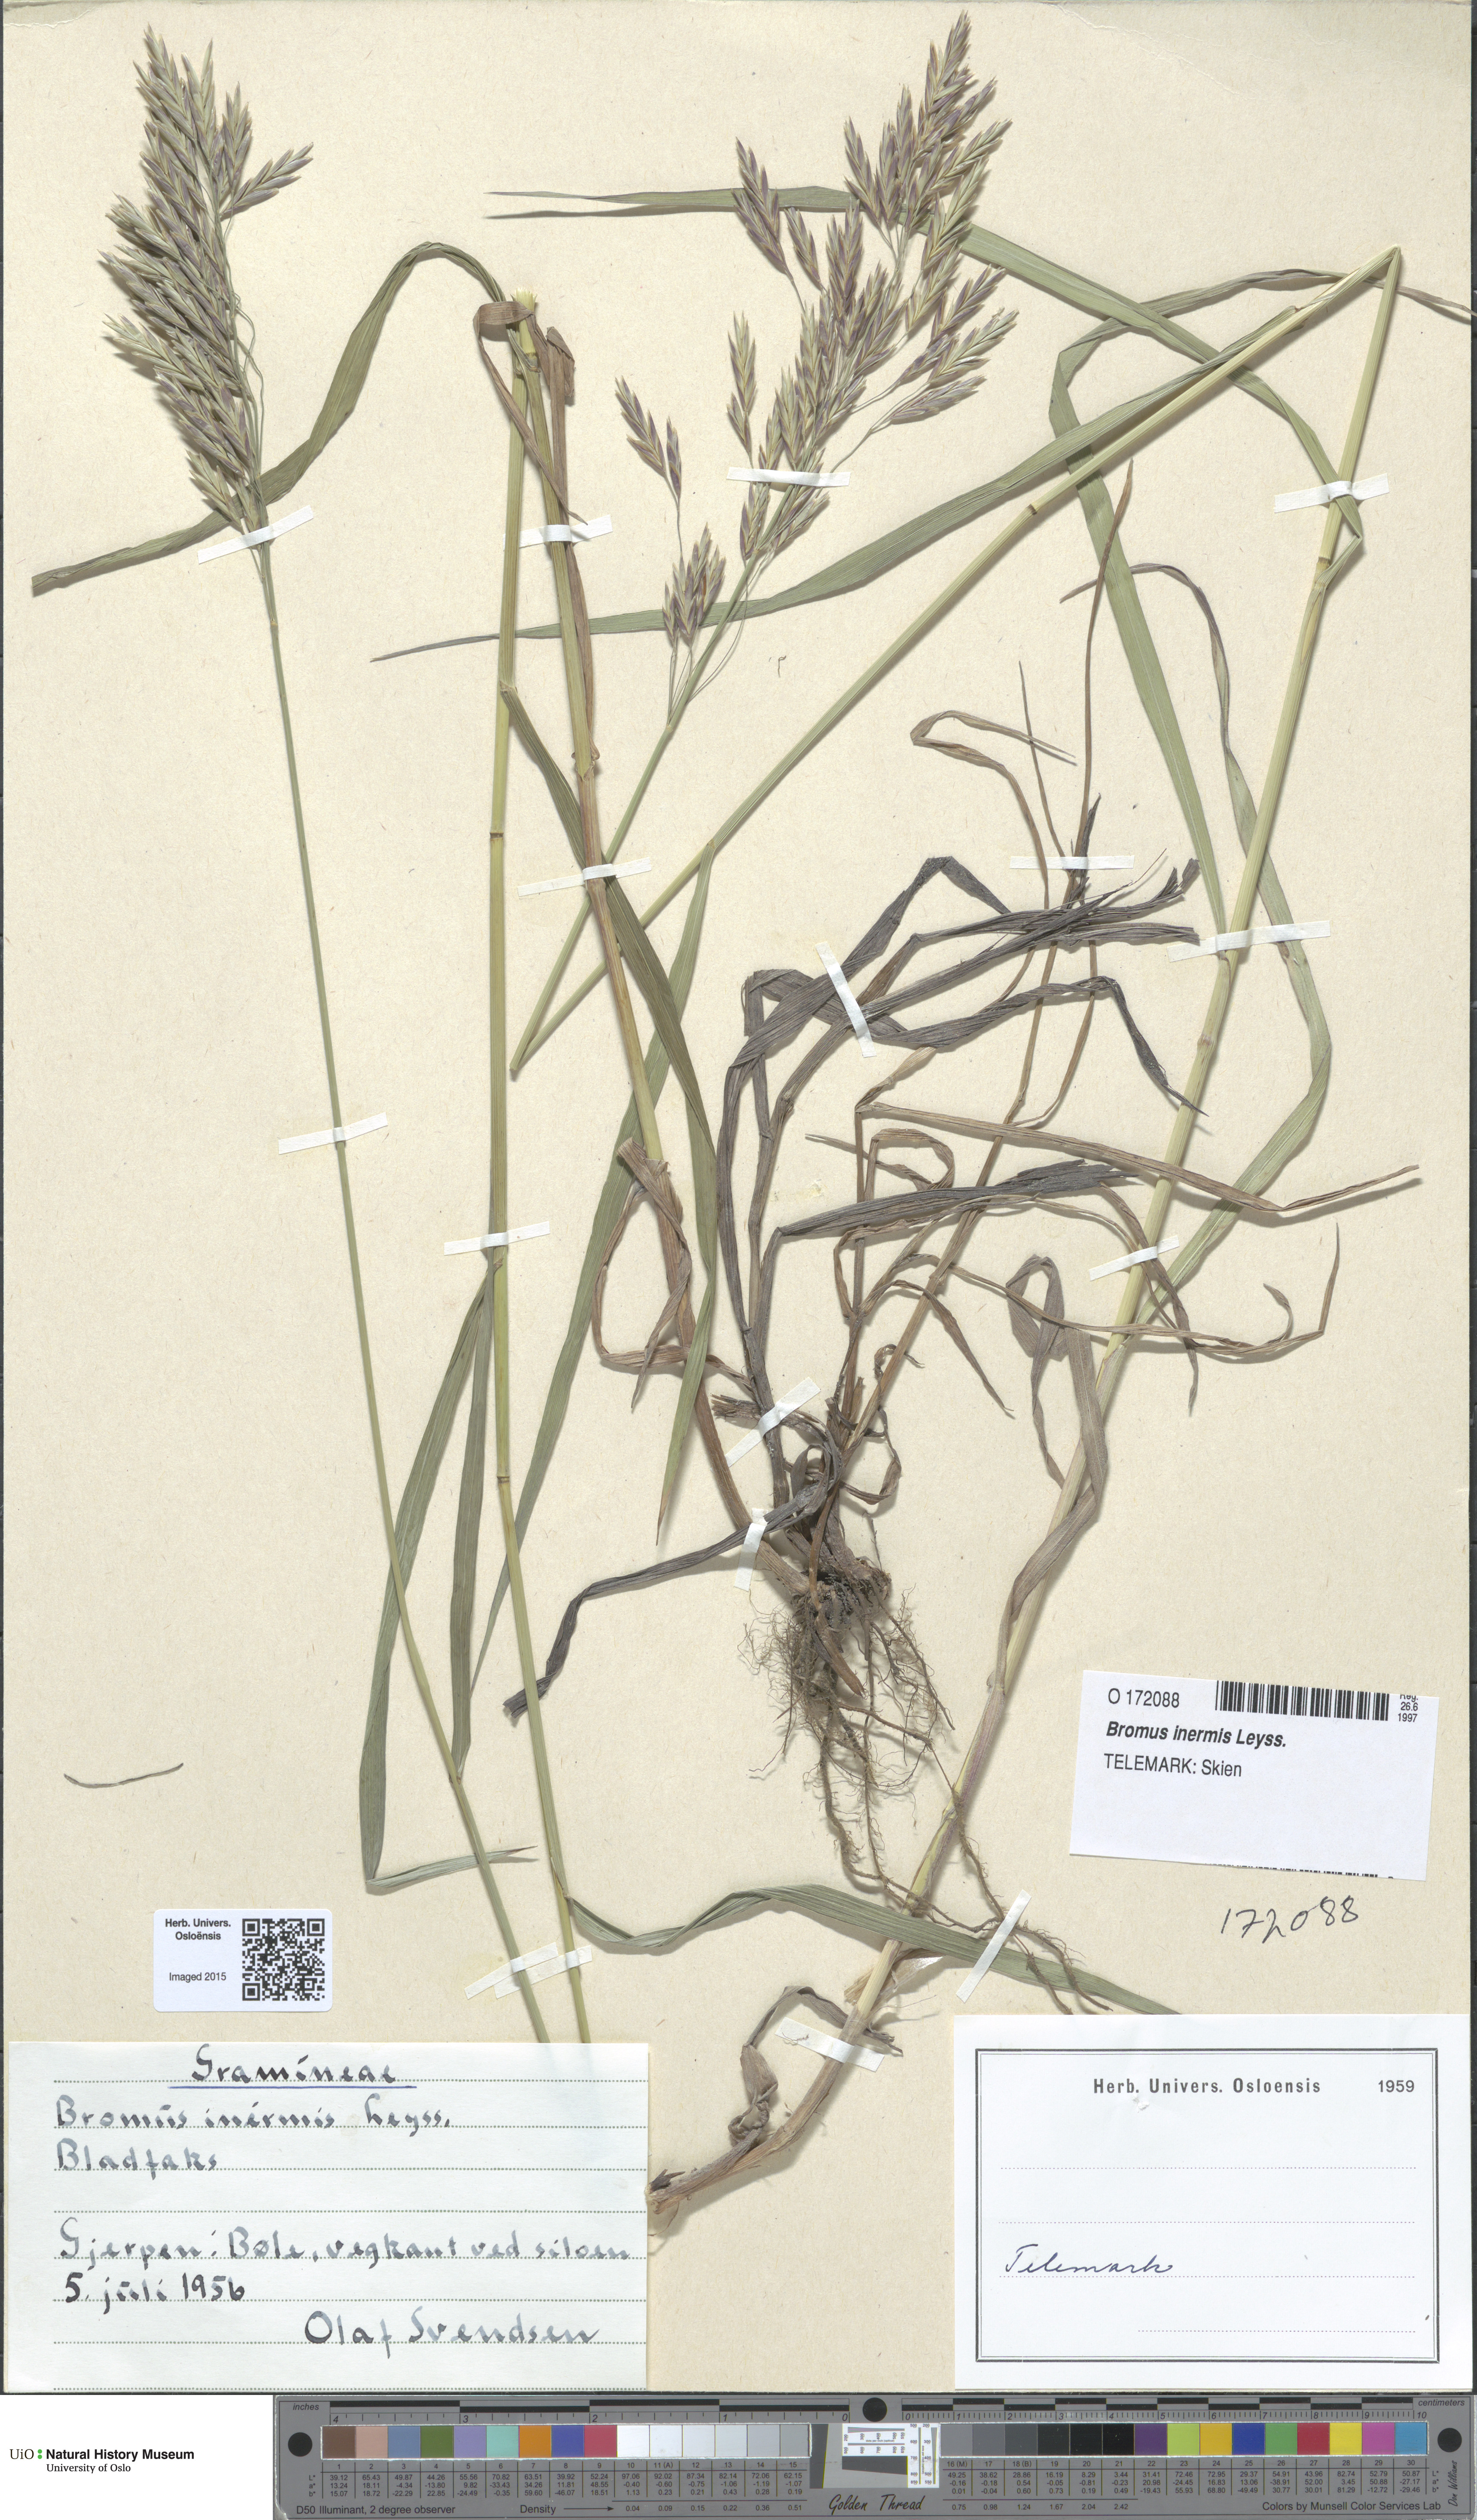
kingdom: Plantae
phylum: Tracheophyta
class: Liliopsida
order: Poales
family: Poaceae
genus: Bromus
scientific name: Bromus inermis
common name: Smooth brome
